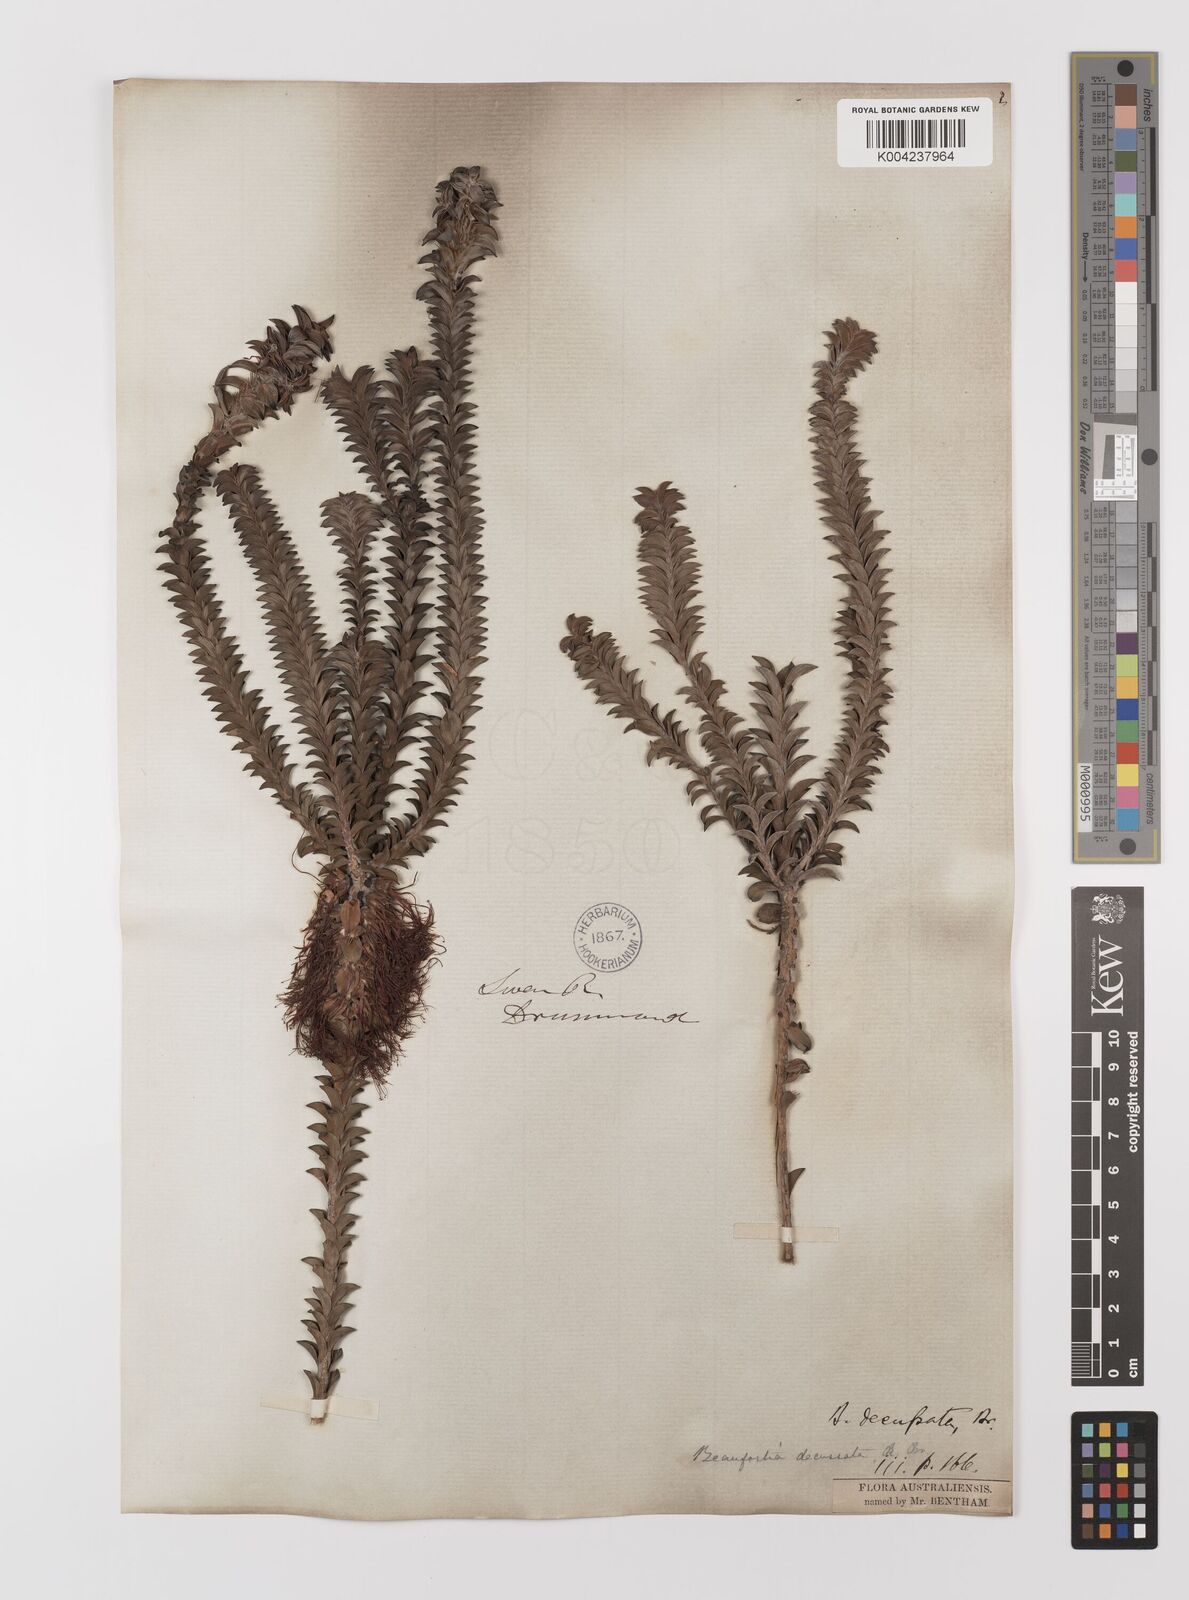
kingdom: Plantae
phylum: Tracheophyta
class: Magnoliopsida
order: Myrtales
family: Myrtaceae
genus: Melaleuca
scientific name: Melaleuca transversa
